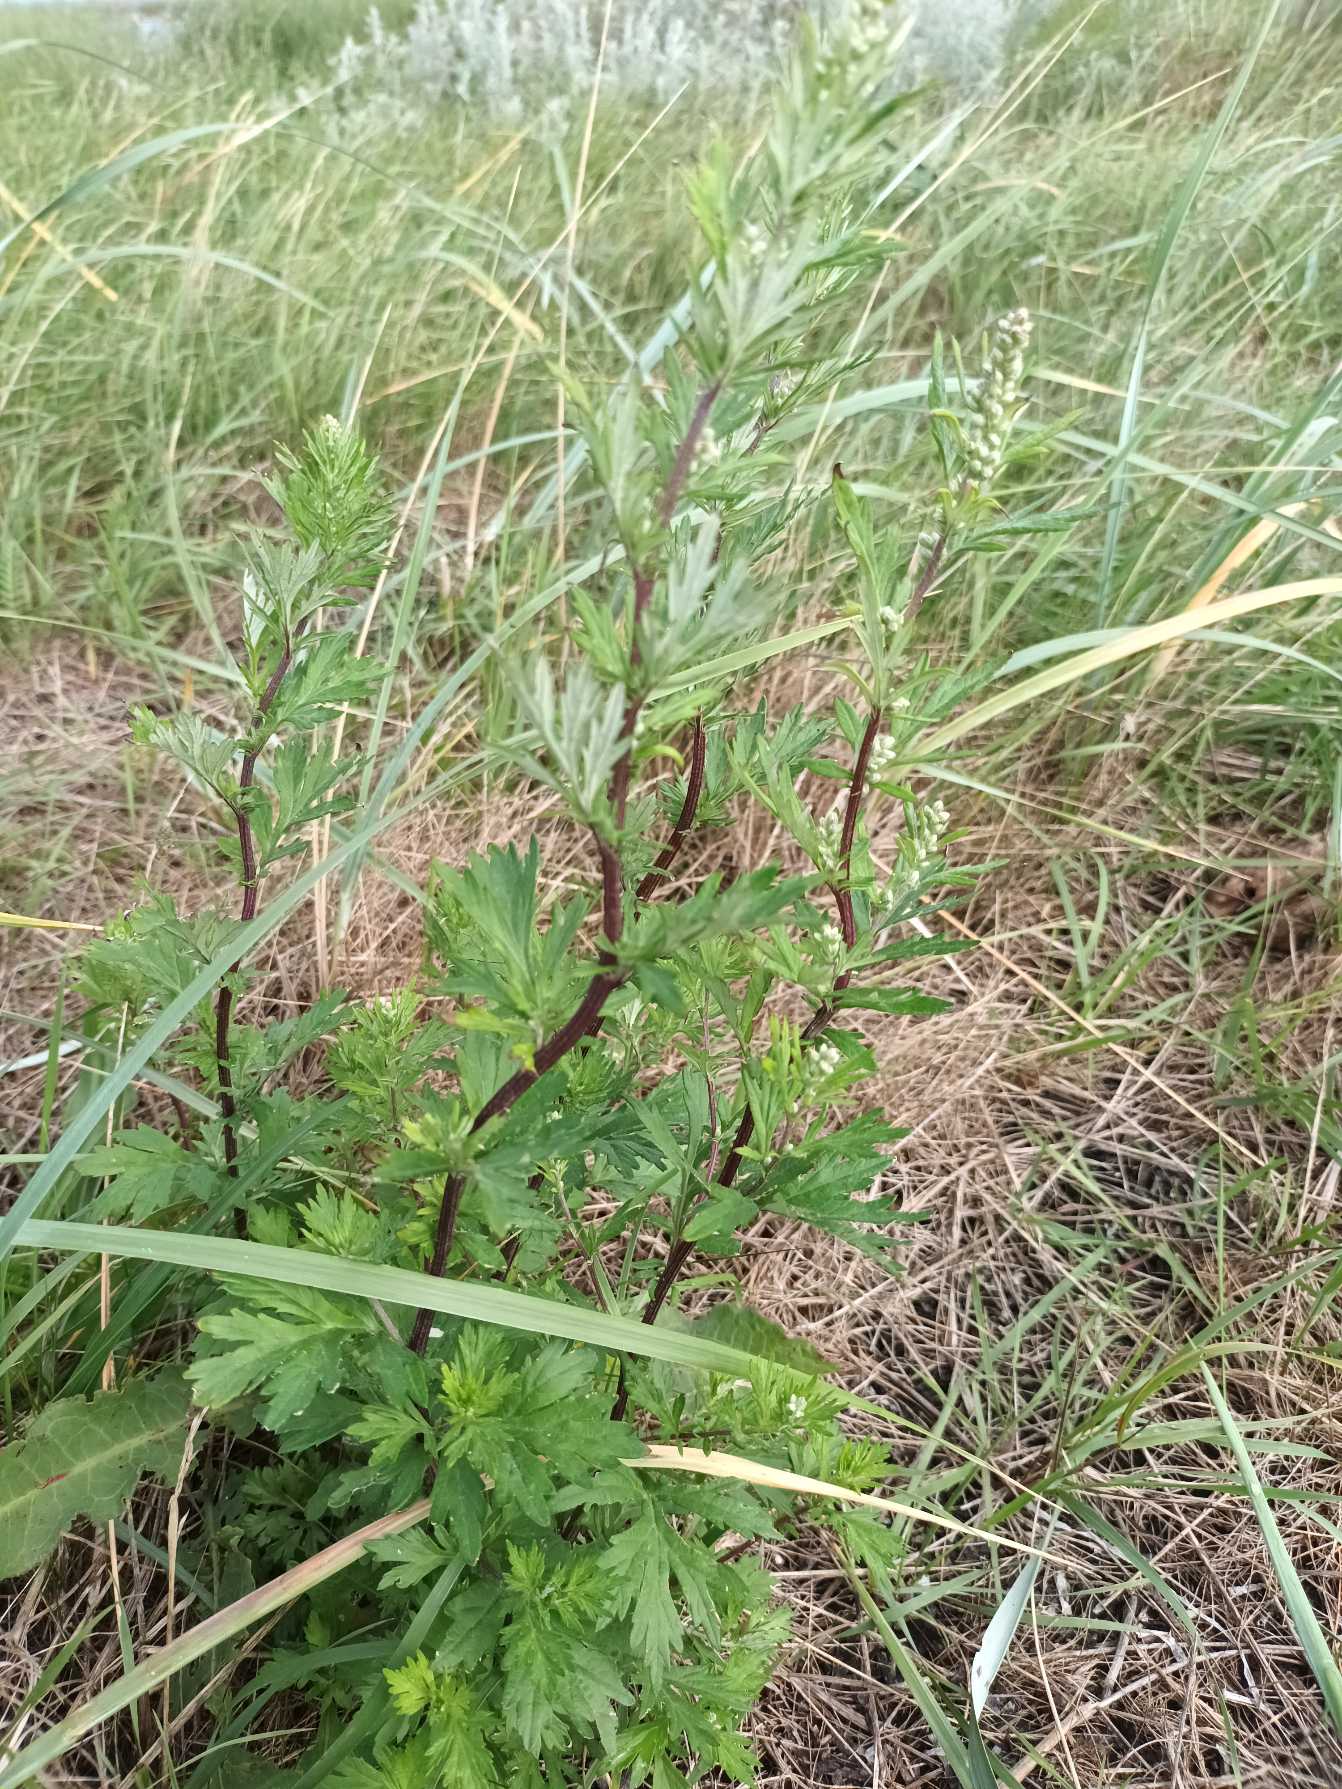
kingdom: Plantae
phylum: Tracheophyta
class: Magnoliopsida
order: Asterales
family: Asteraceae
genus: Artemisia
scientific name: Artemisia vulgaris
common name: Grå-bynke
